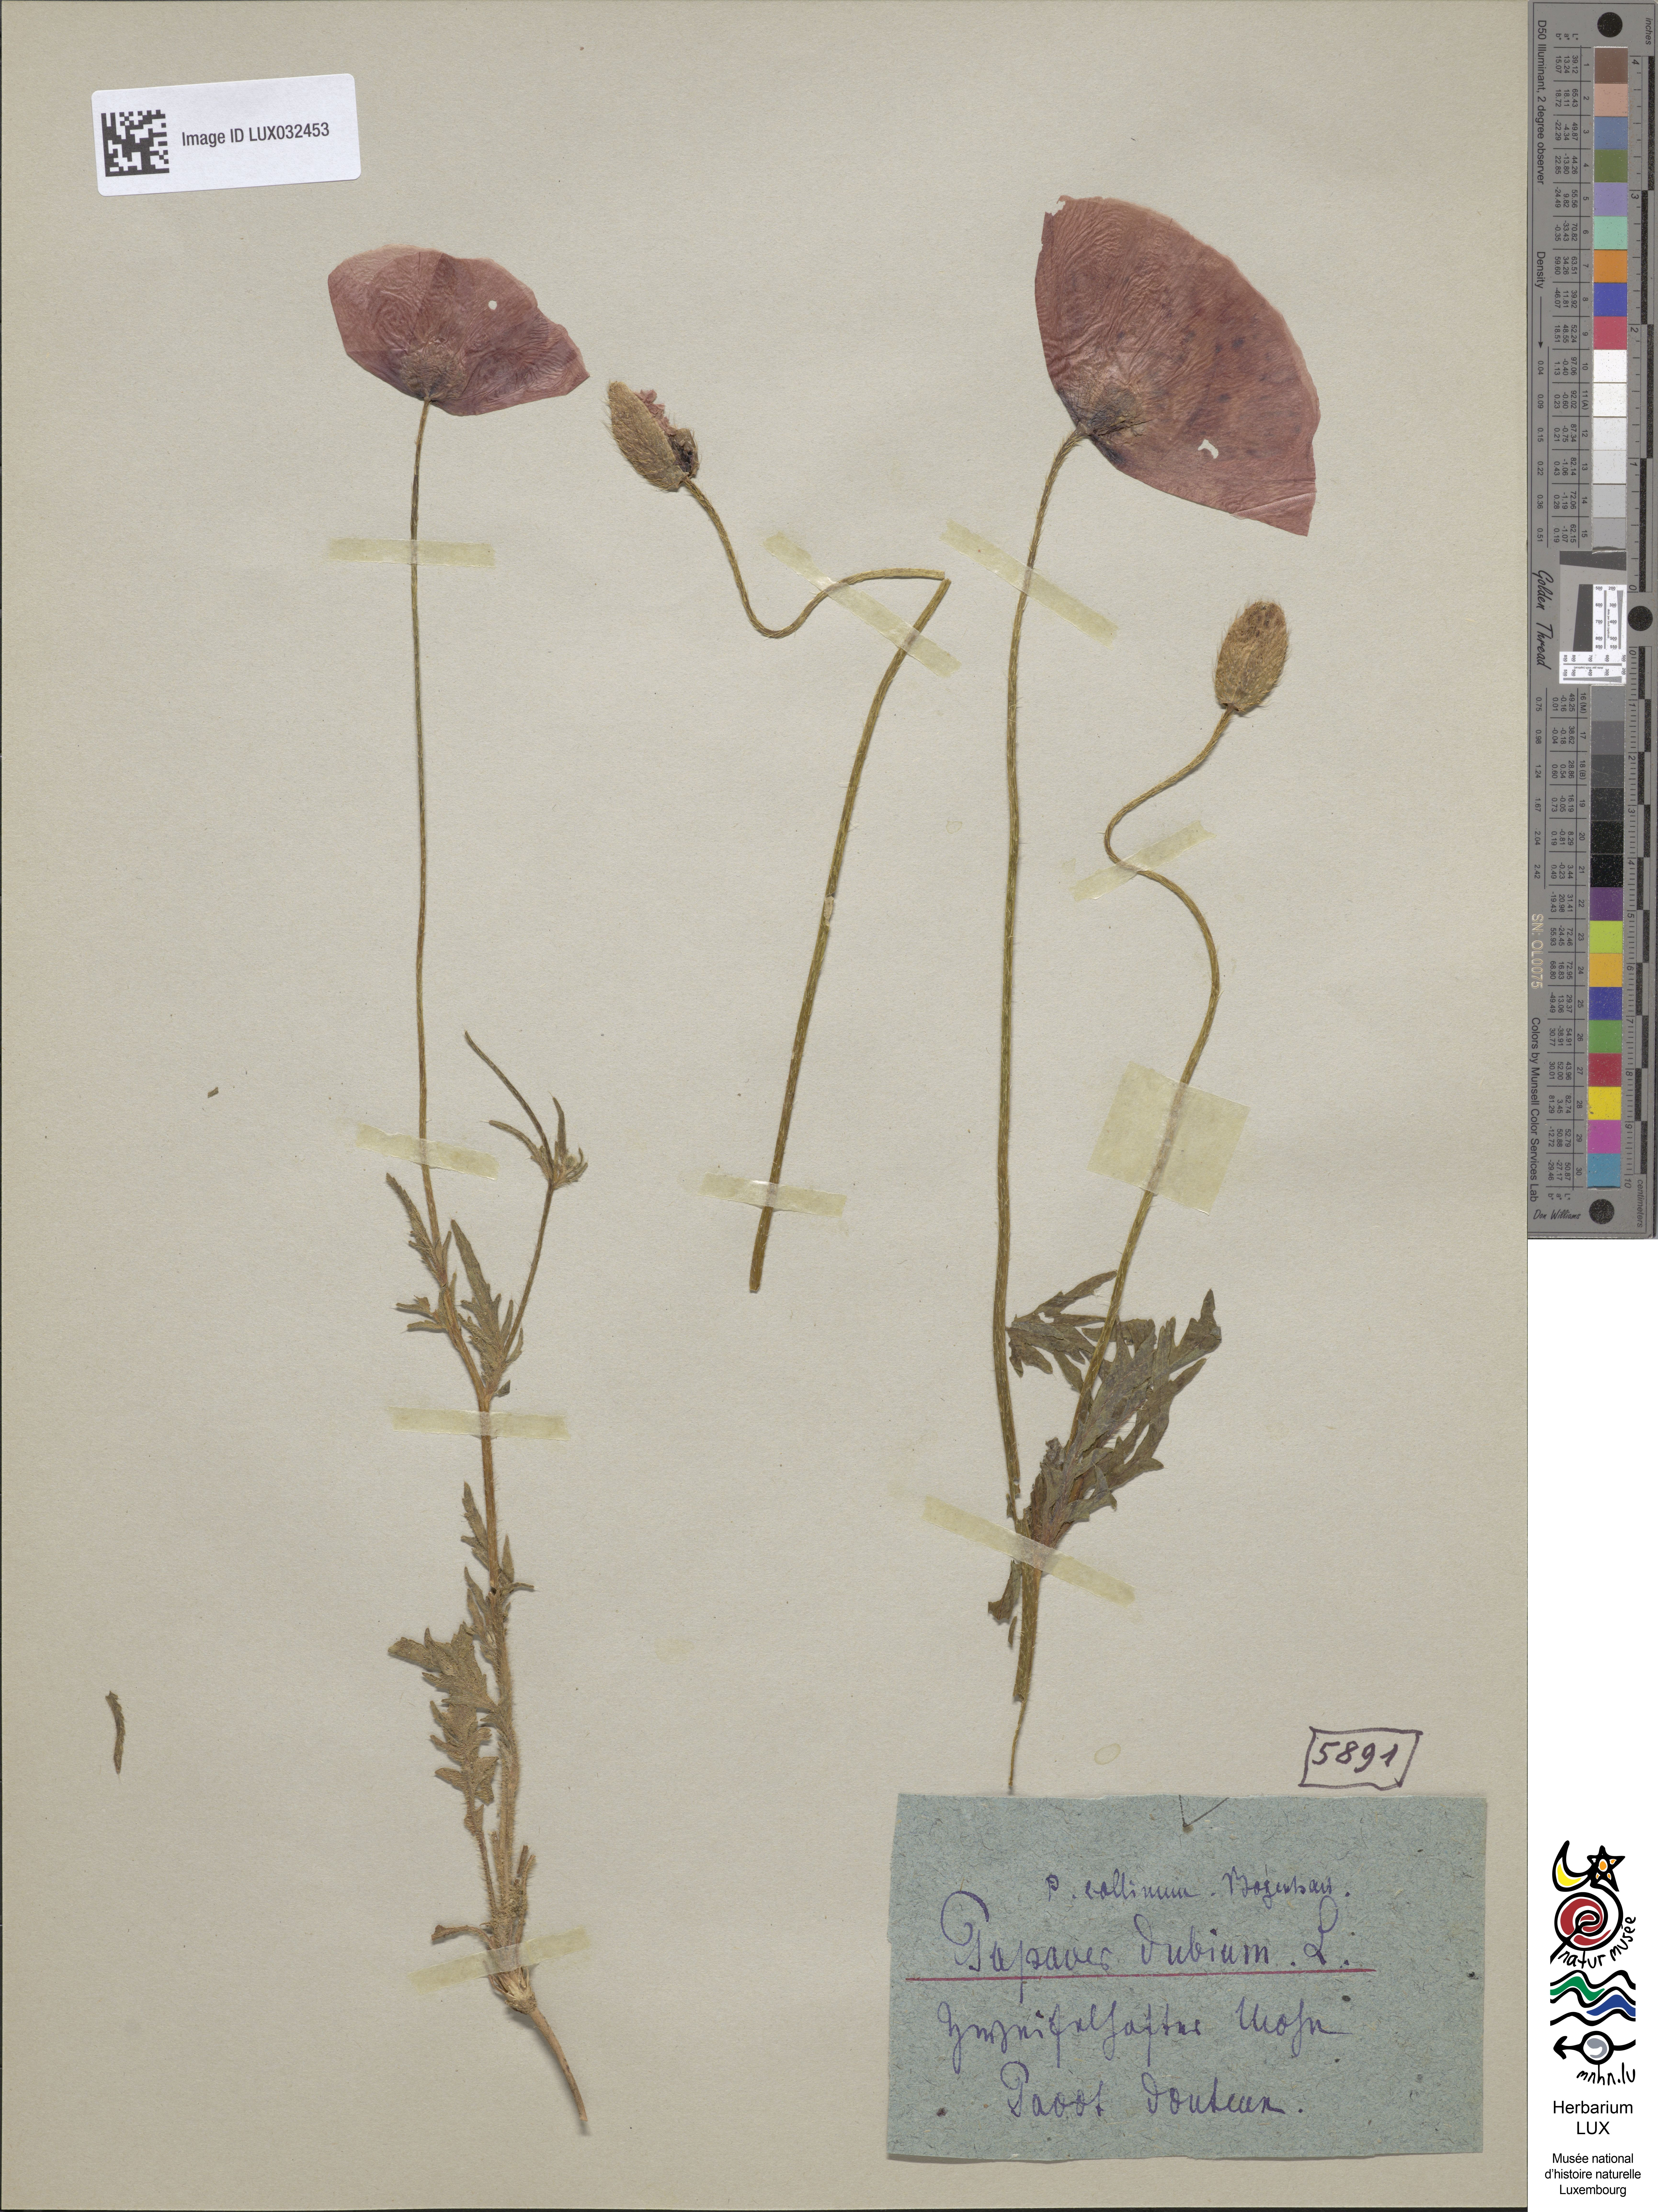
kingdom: Plantae
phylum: Tracheophyta
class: Magnoliopsida
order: Ranunculales
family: Papaveraceae
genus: Papaver
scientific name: Papaver dubium
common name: Long-headed poppy
